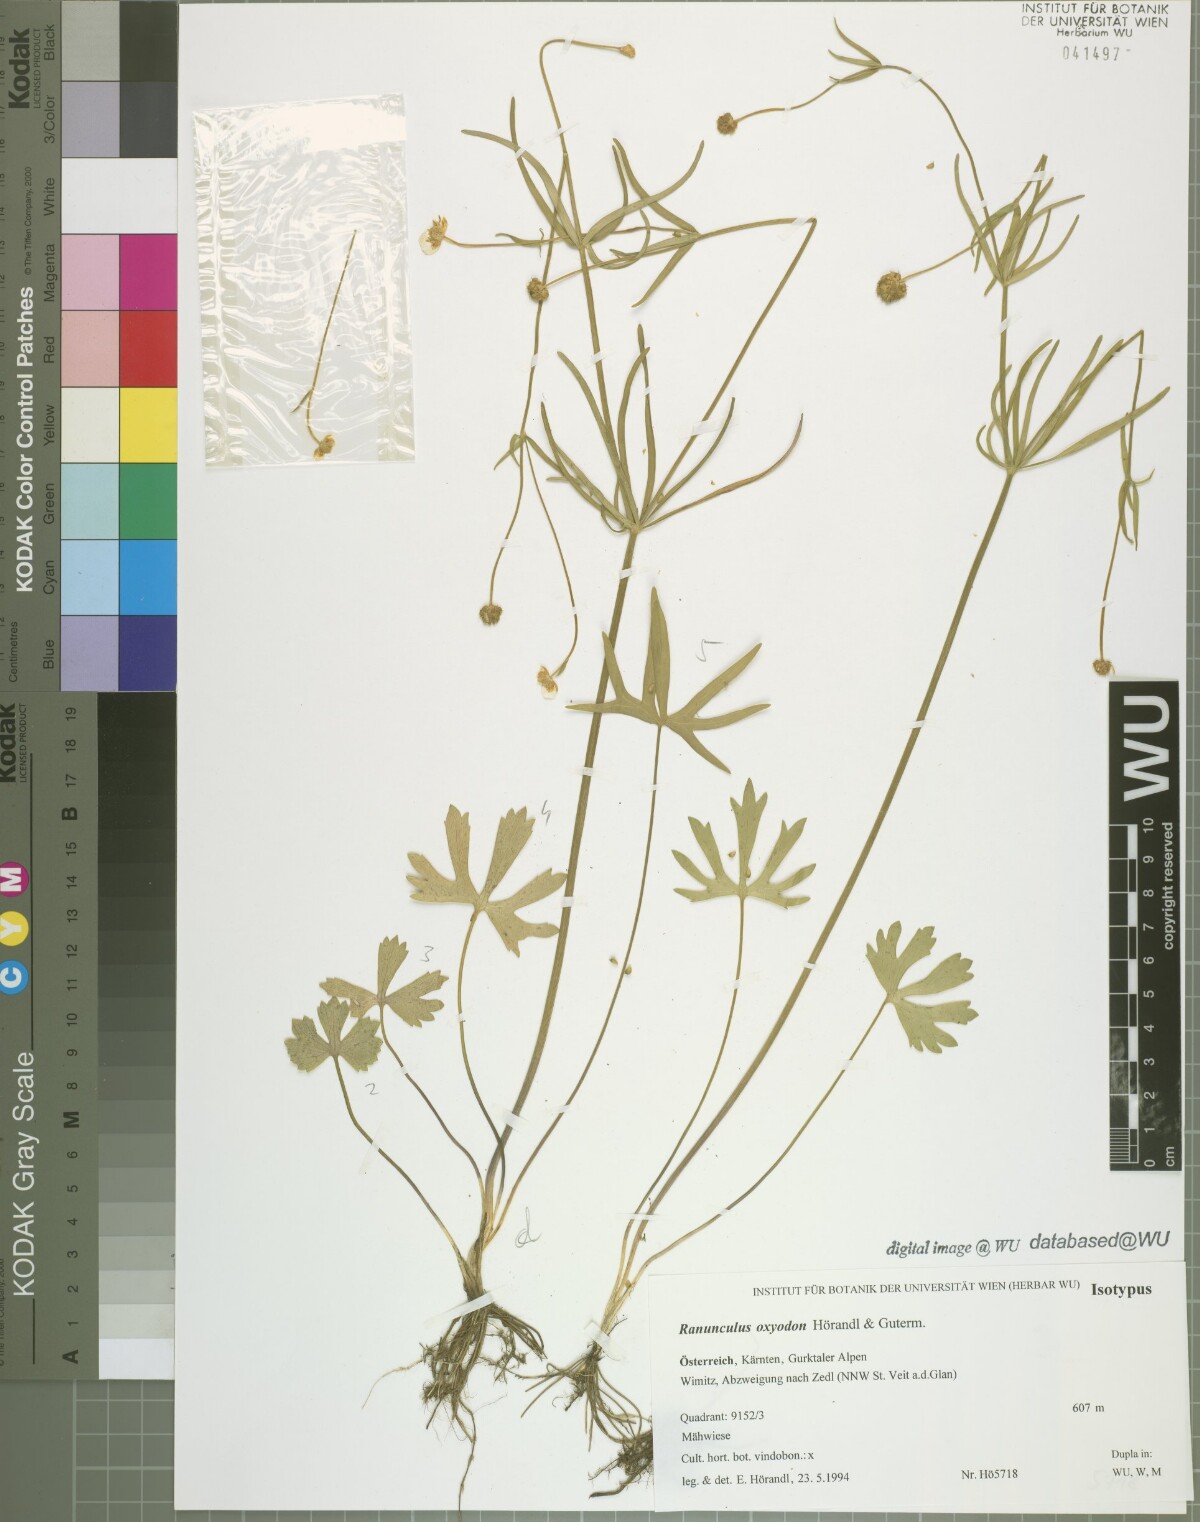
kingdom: Plantae
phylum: Tracheophyta
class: Magnoliopsida
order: Ranunculales
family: Ranunculaceae
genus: Ranunculus
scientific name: Ranunculus oxyodon
